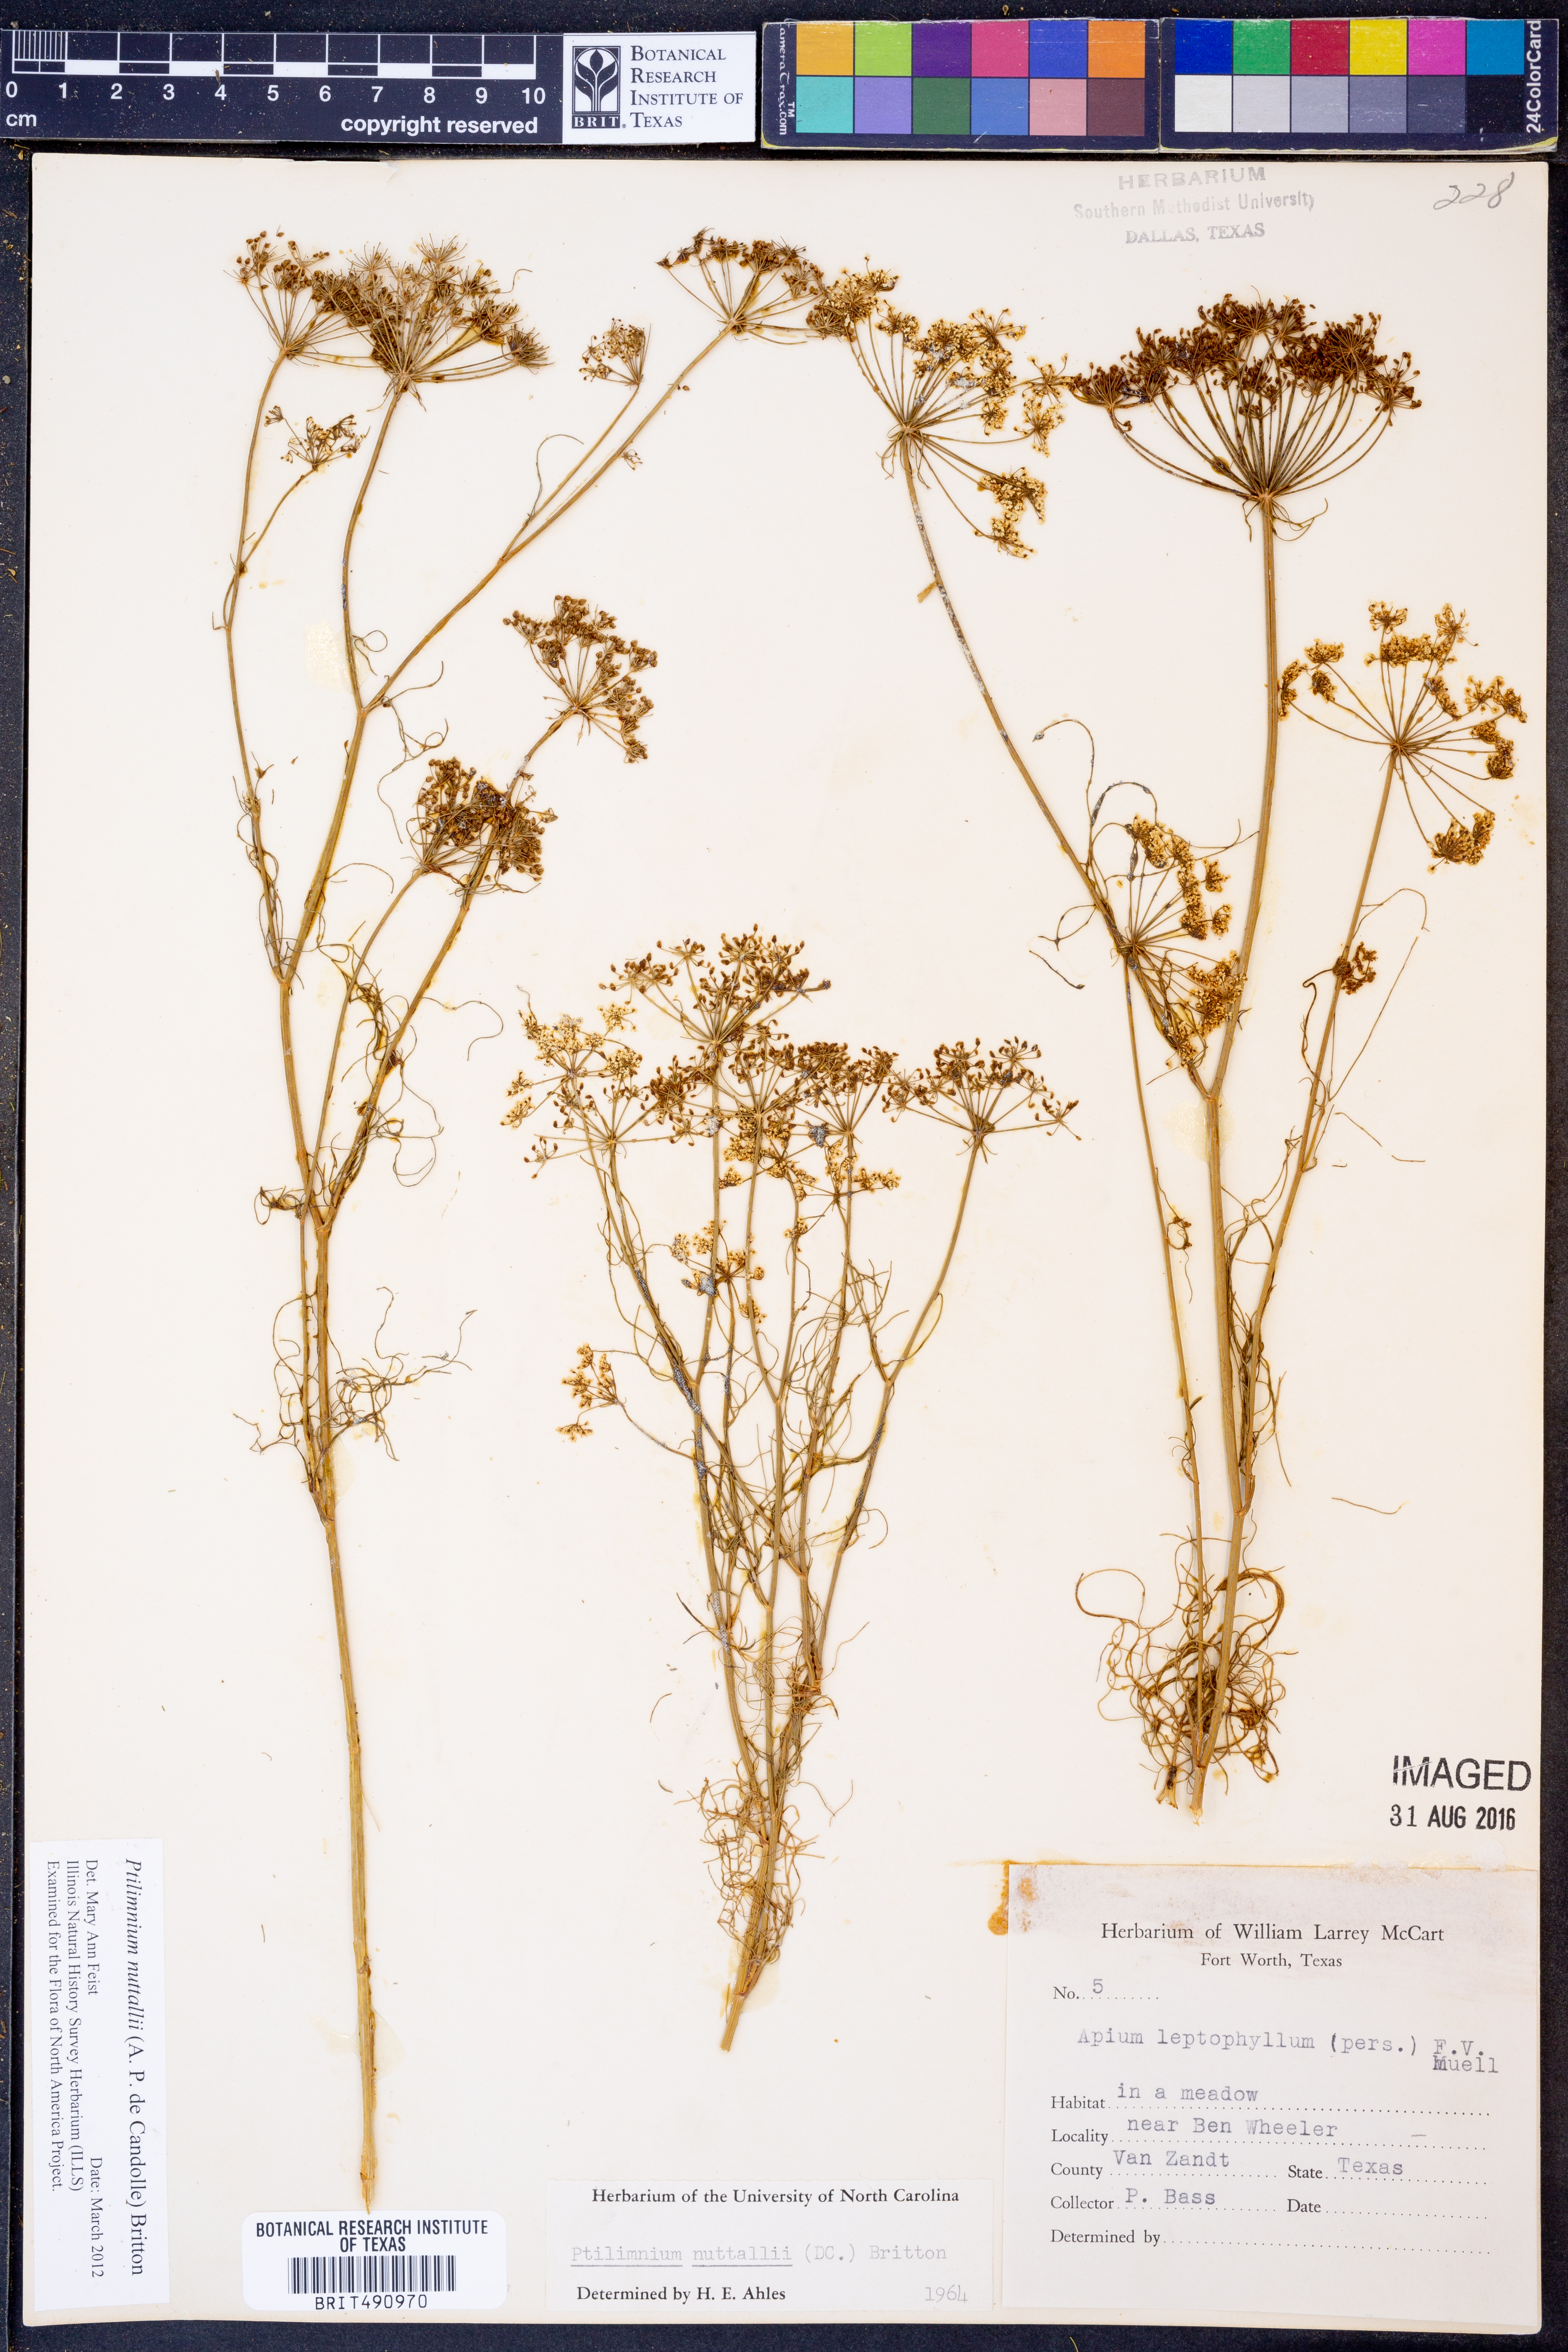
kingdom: Plantae
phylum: Tracheophyta
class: Magnoliopsida
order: Apiales
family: Apiaceae
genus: Ptilimnium
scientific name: Ptilimnium nuttallii
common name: Ozark bishop's-weed
